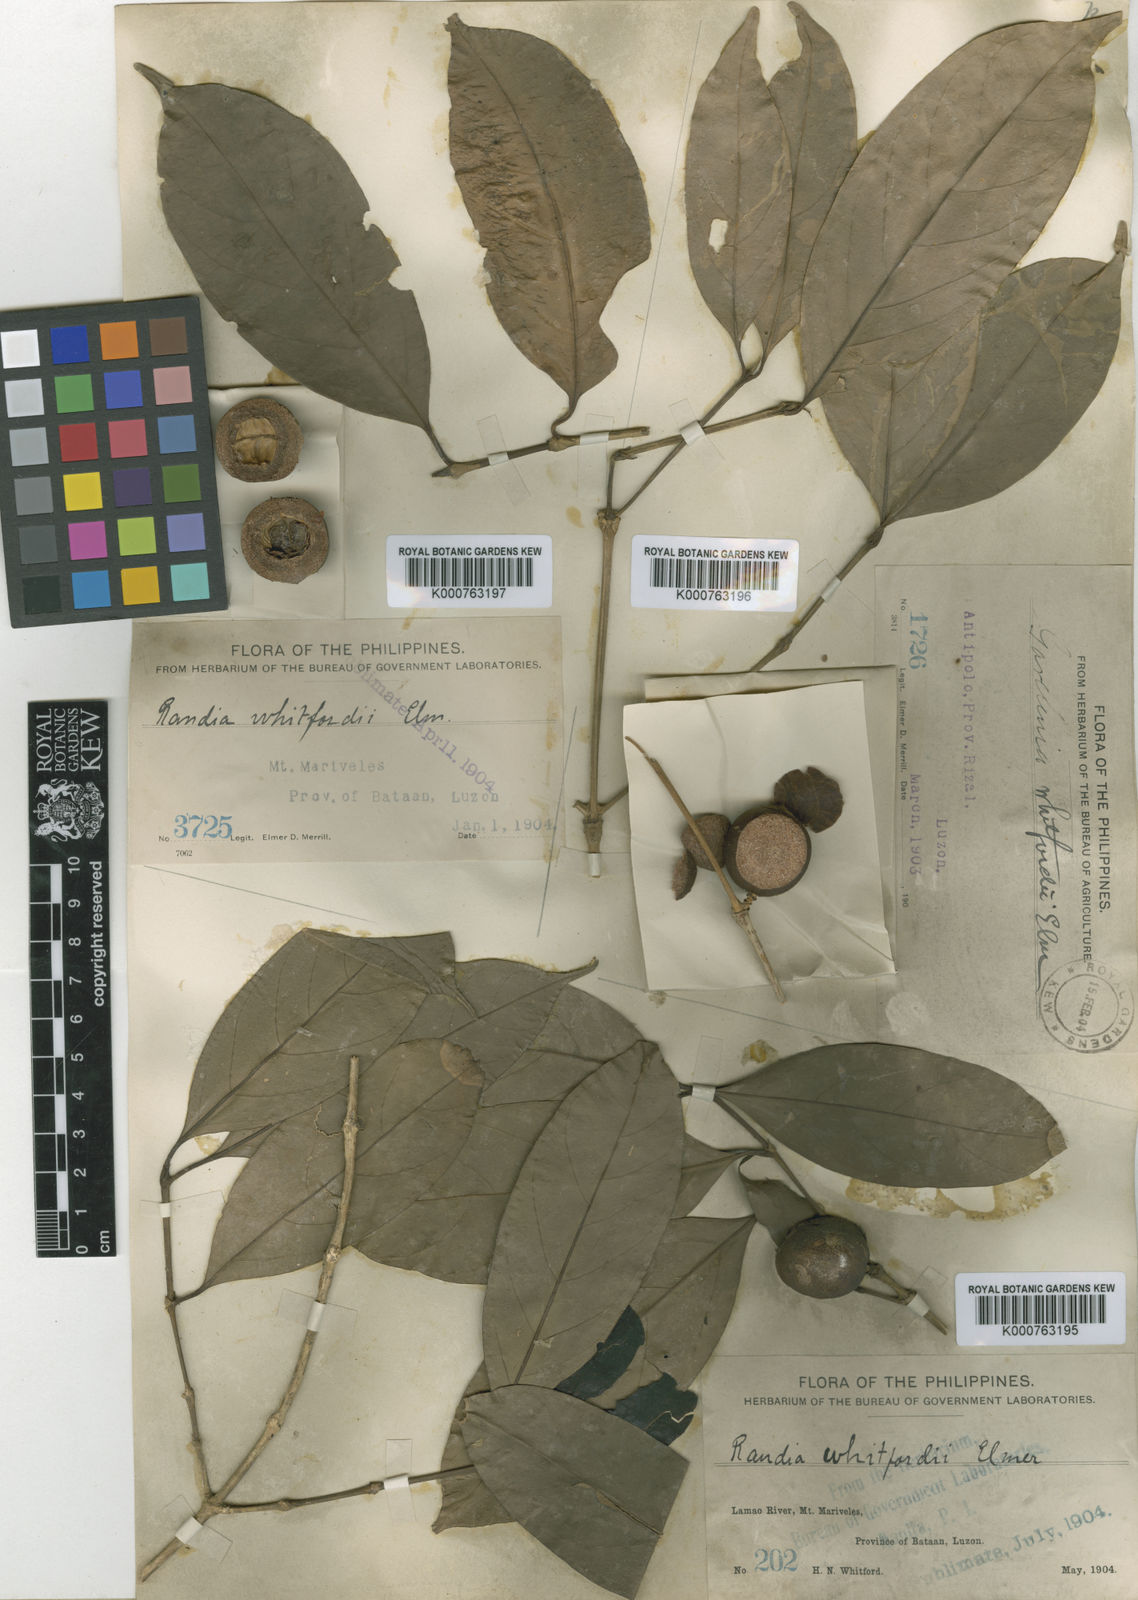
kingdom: Plantae
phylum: Tracheophyta
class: Magnoliopsida
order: Gentianales
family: Rubiaceae
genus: Discospermum
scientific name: Discospermum whitfordii
